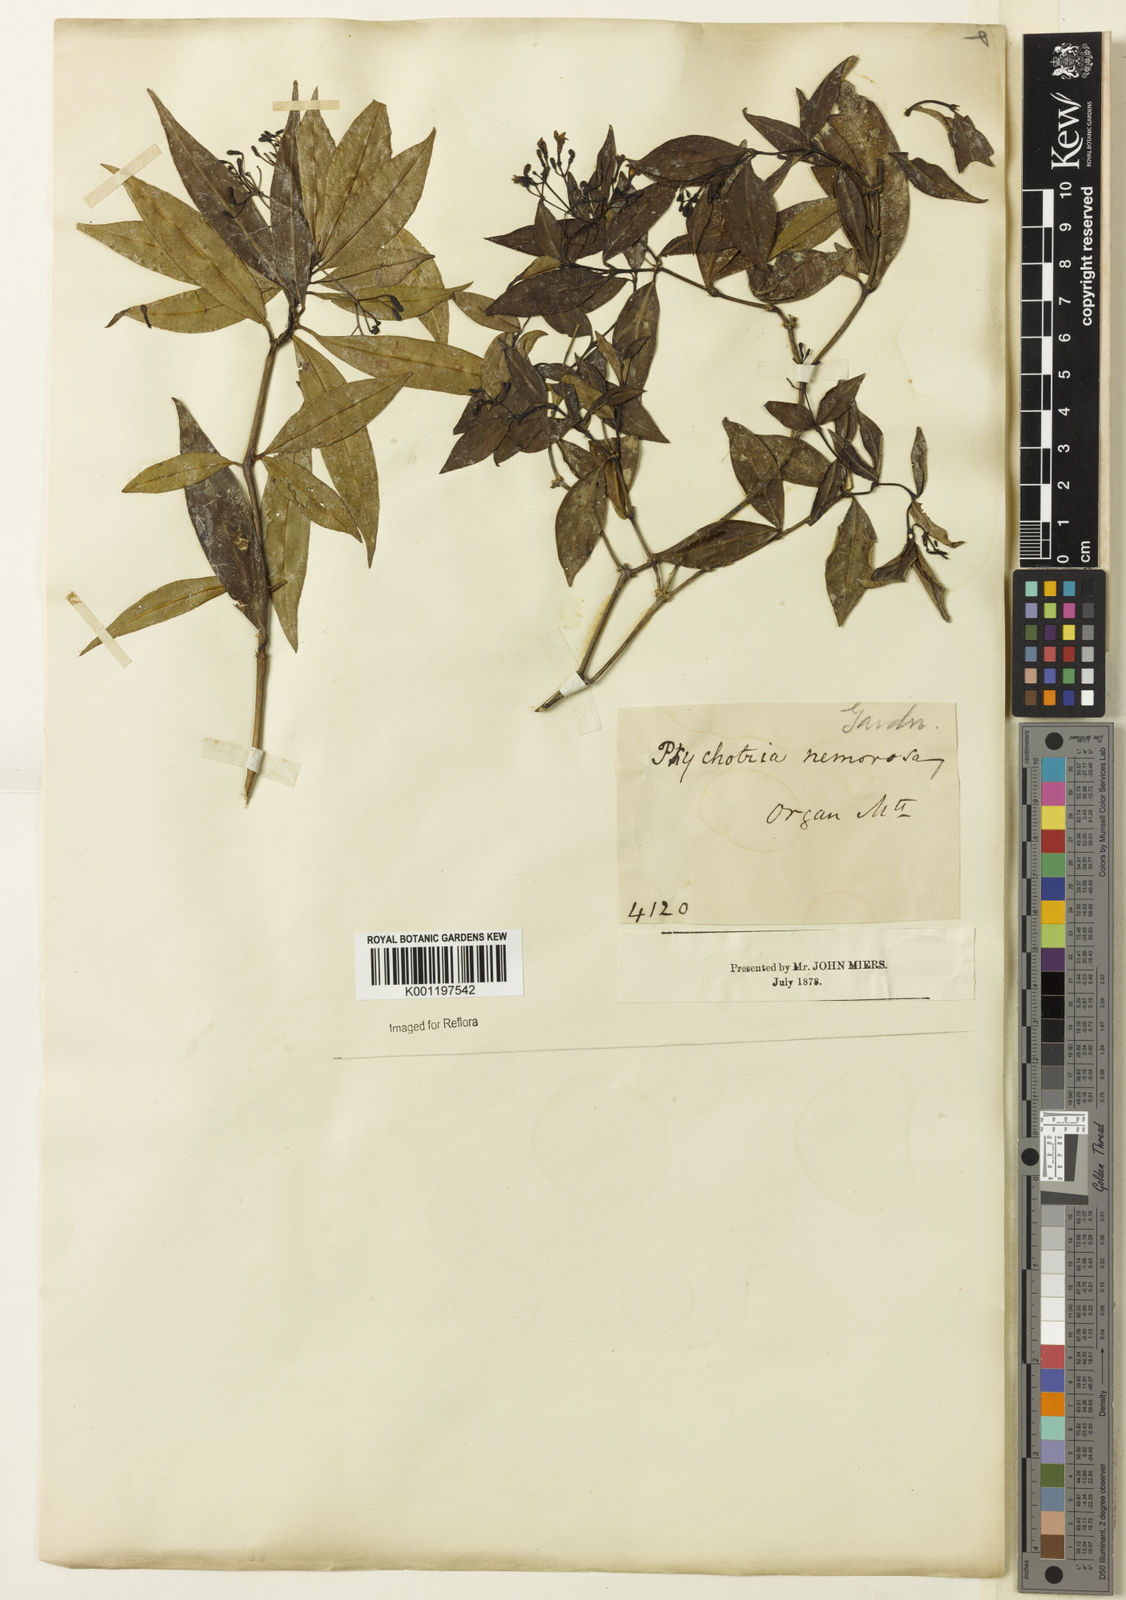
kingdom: Plantae
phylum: Tracheophyta
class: Magnoliopsida
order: Gentianales
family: Rubiaceae
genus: Psychotria
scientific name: Psychotria nemorosa
